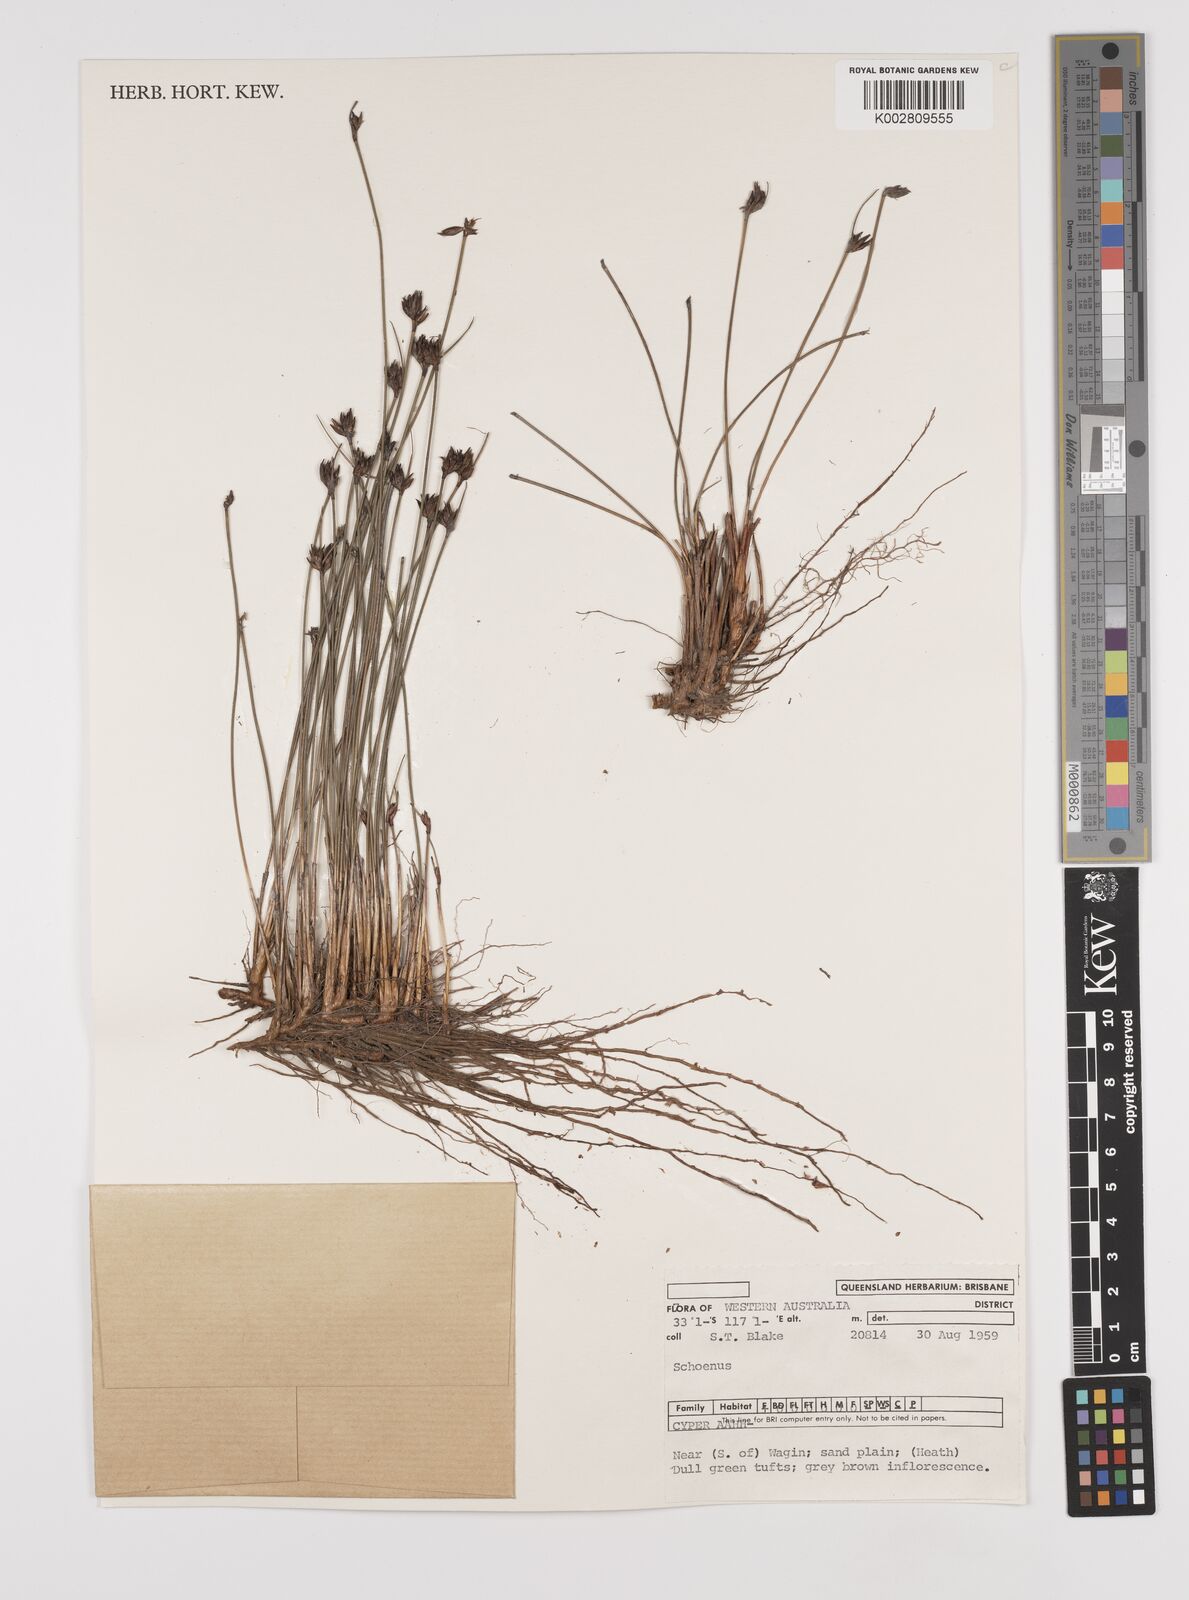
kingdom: Plantae
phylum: Tracheophyta
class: Liliopsida
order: Poales
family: Cyperaceae
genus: Schoenus
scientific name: Schoenus
